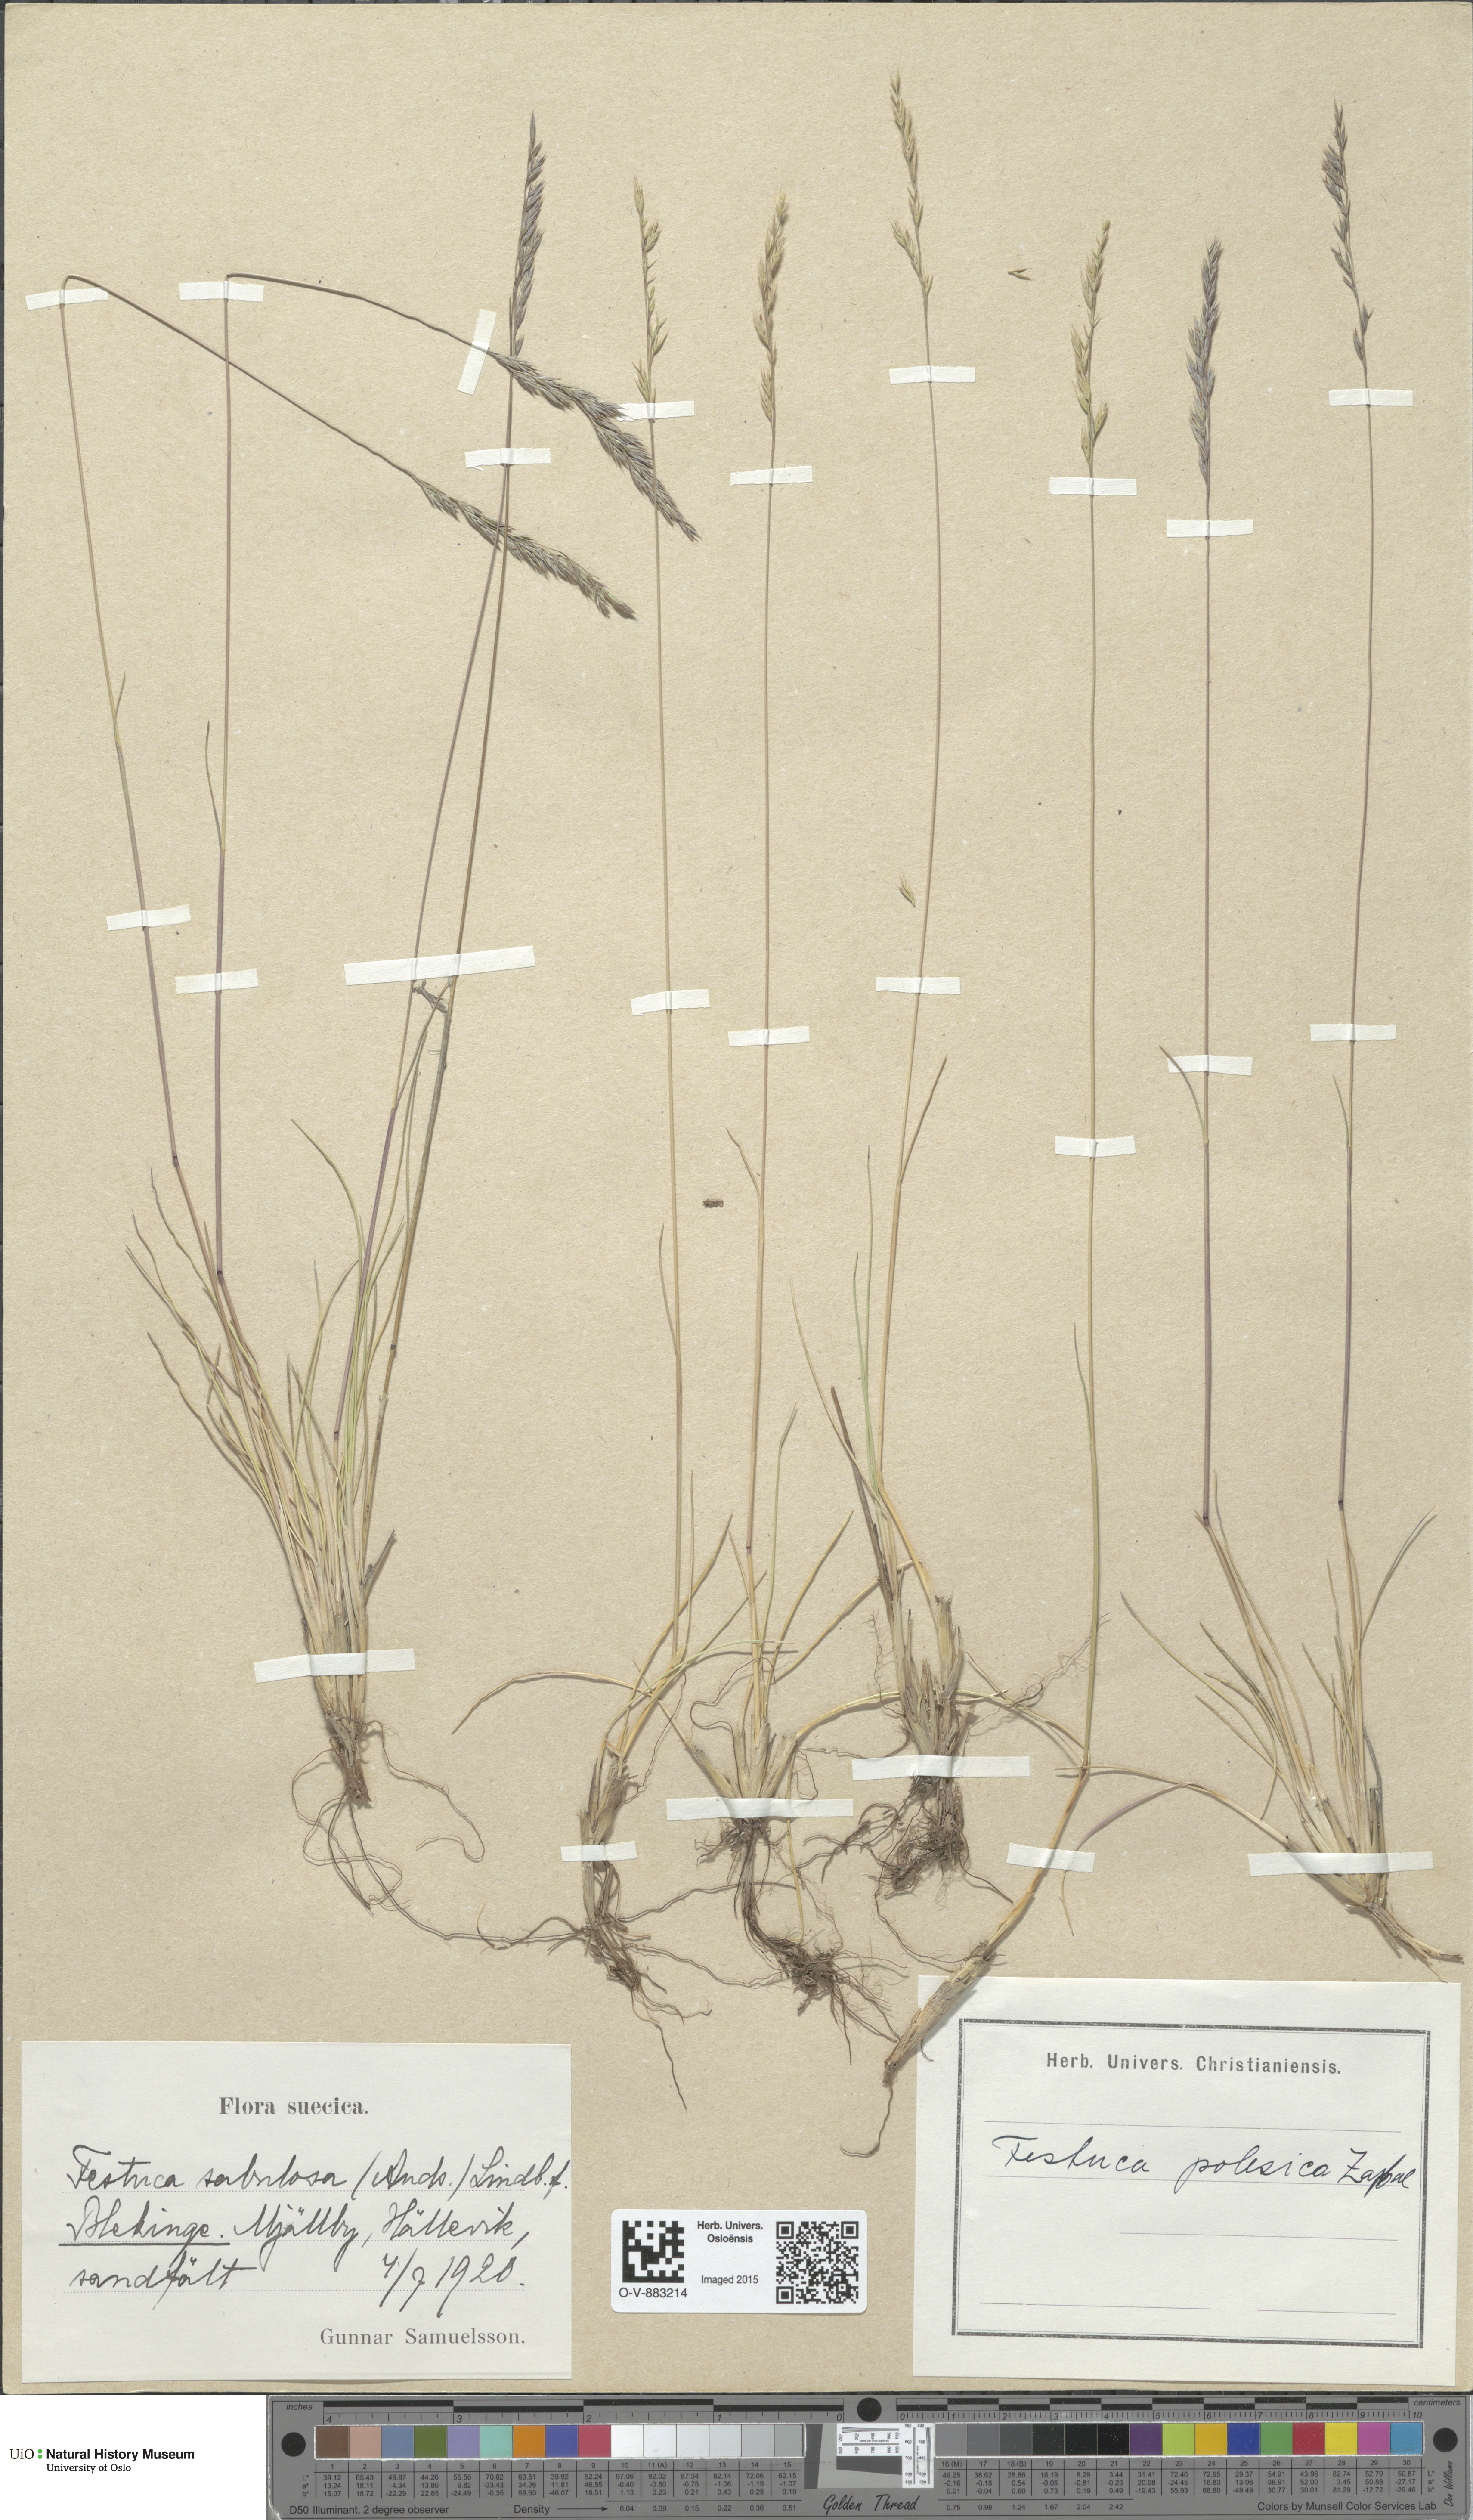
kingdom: Plantae
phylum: Tracheophyta
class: Liliopsida
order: Poales
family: Poaceae
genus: Festuca
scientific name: Festuca beckeri
